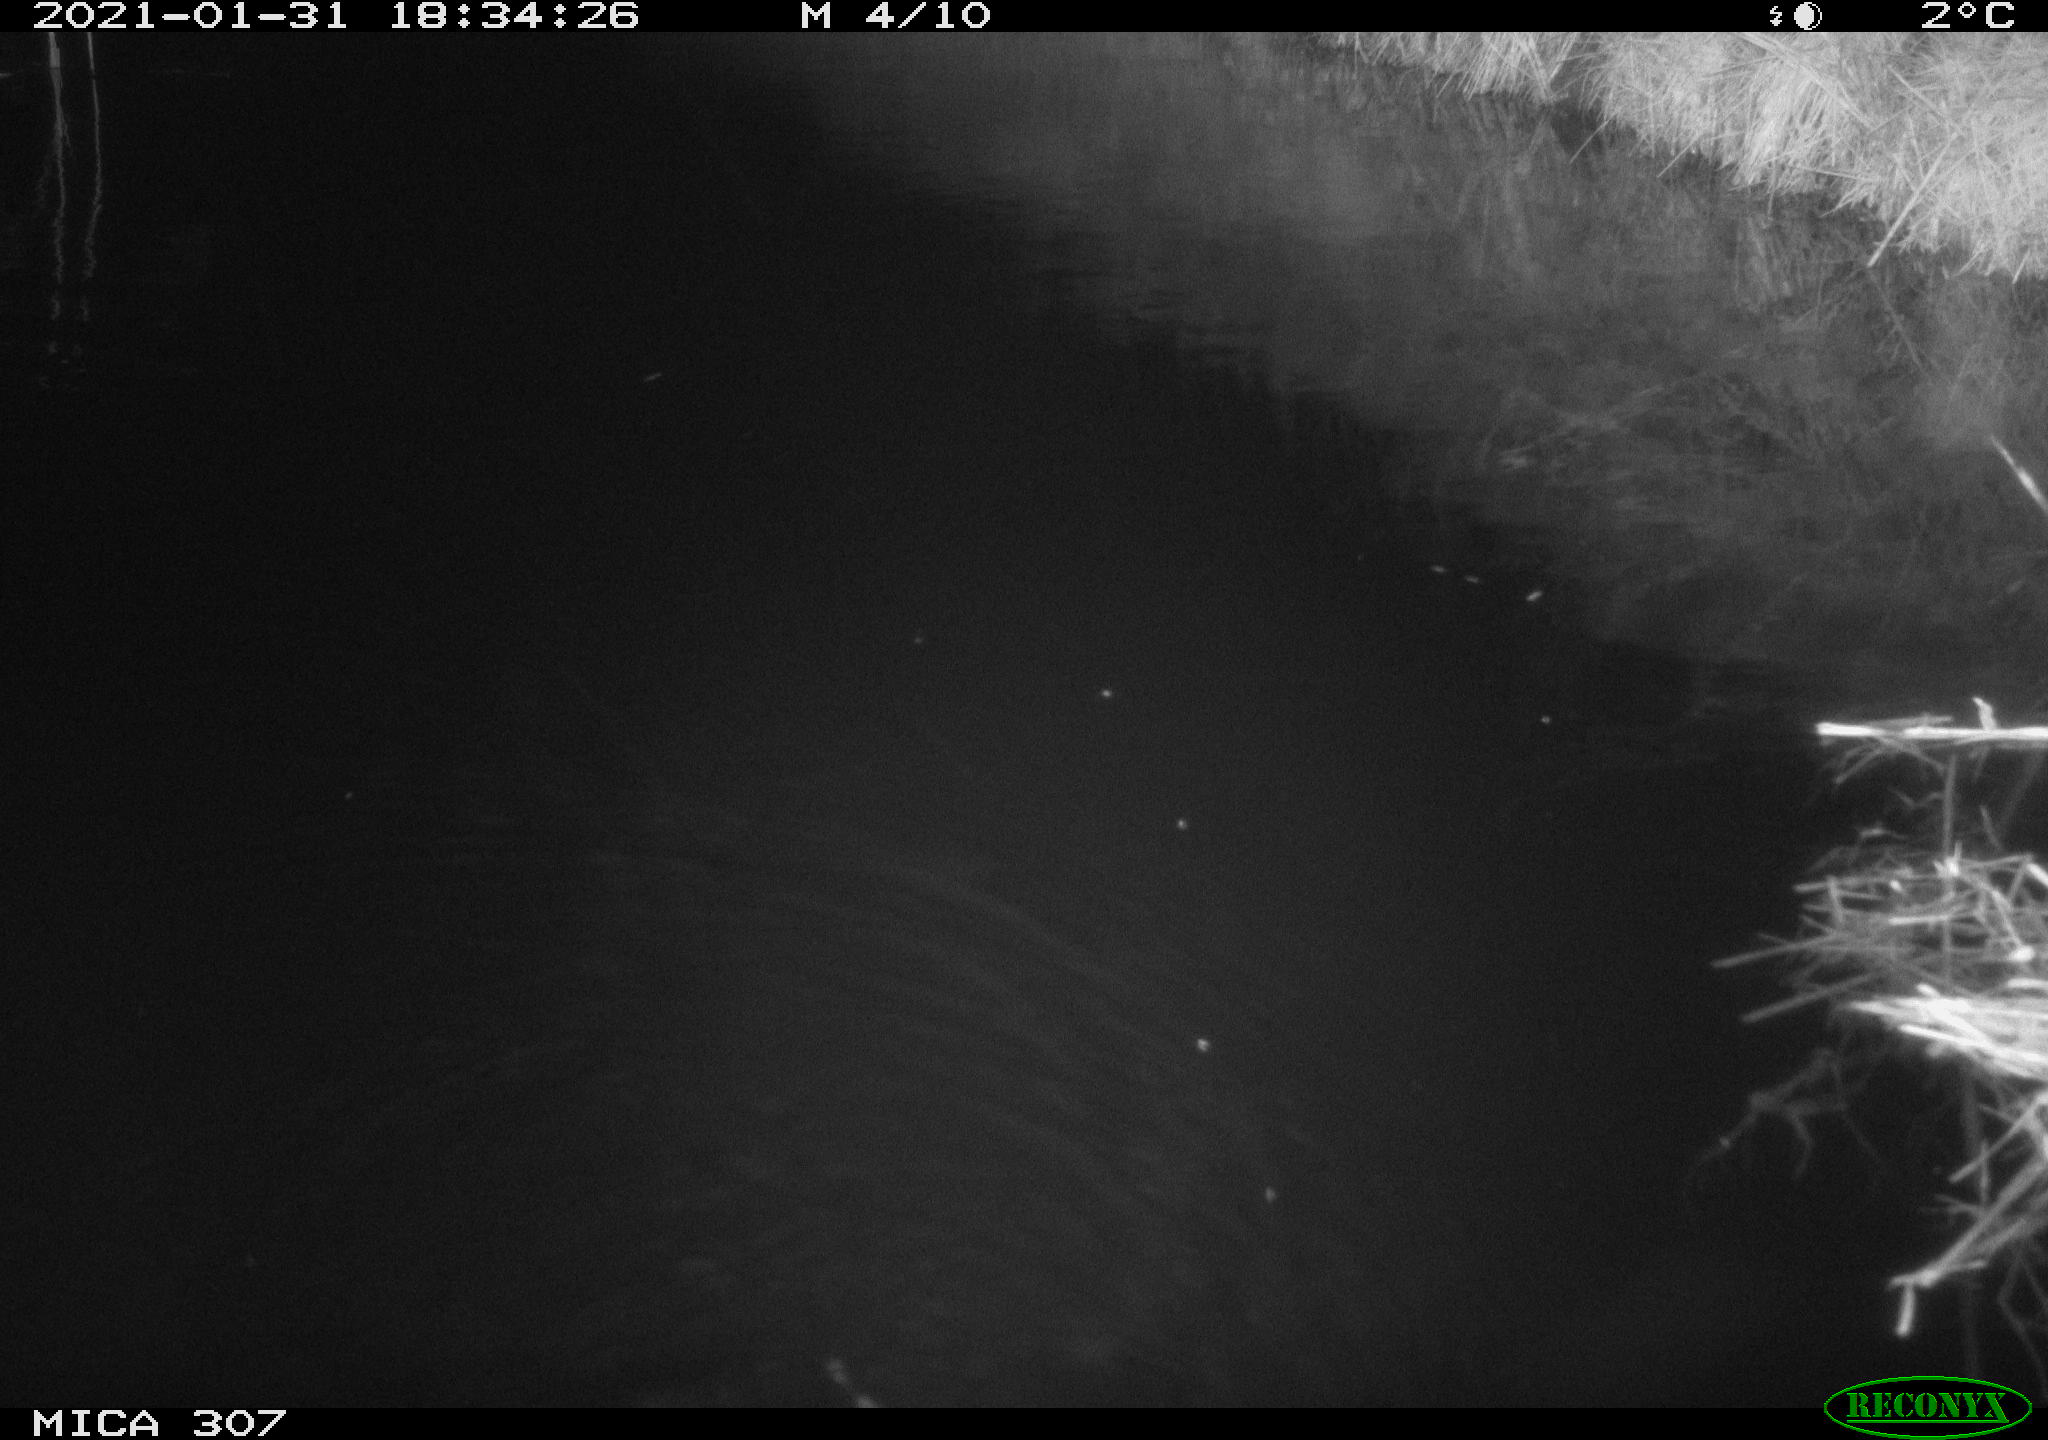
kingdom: Animalia
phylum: Chordata
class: Mammalia
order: Rodentia
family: Muridae
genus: Rattus
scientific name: Rattus norvegicus
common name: Brown rat
